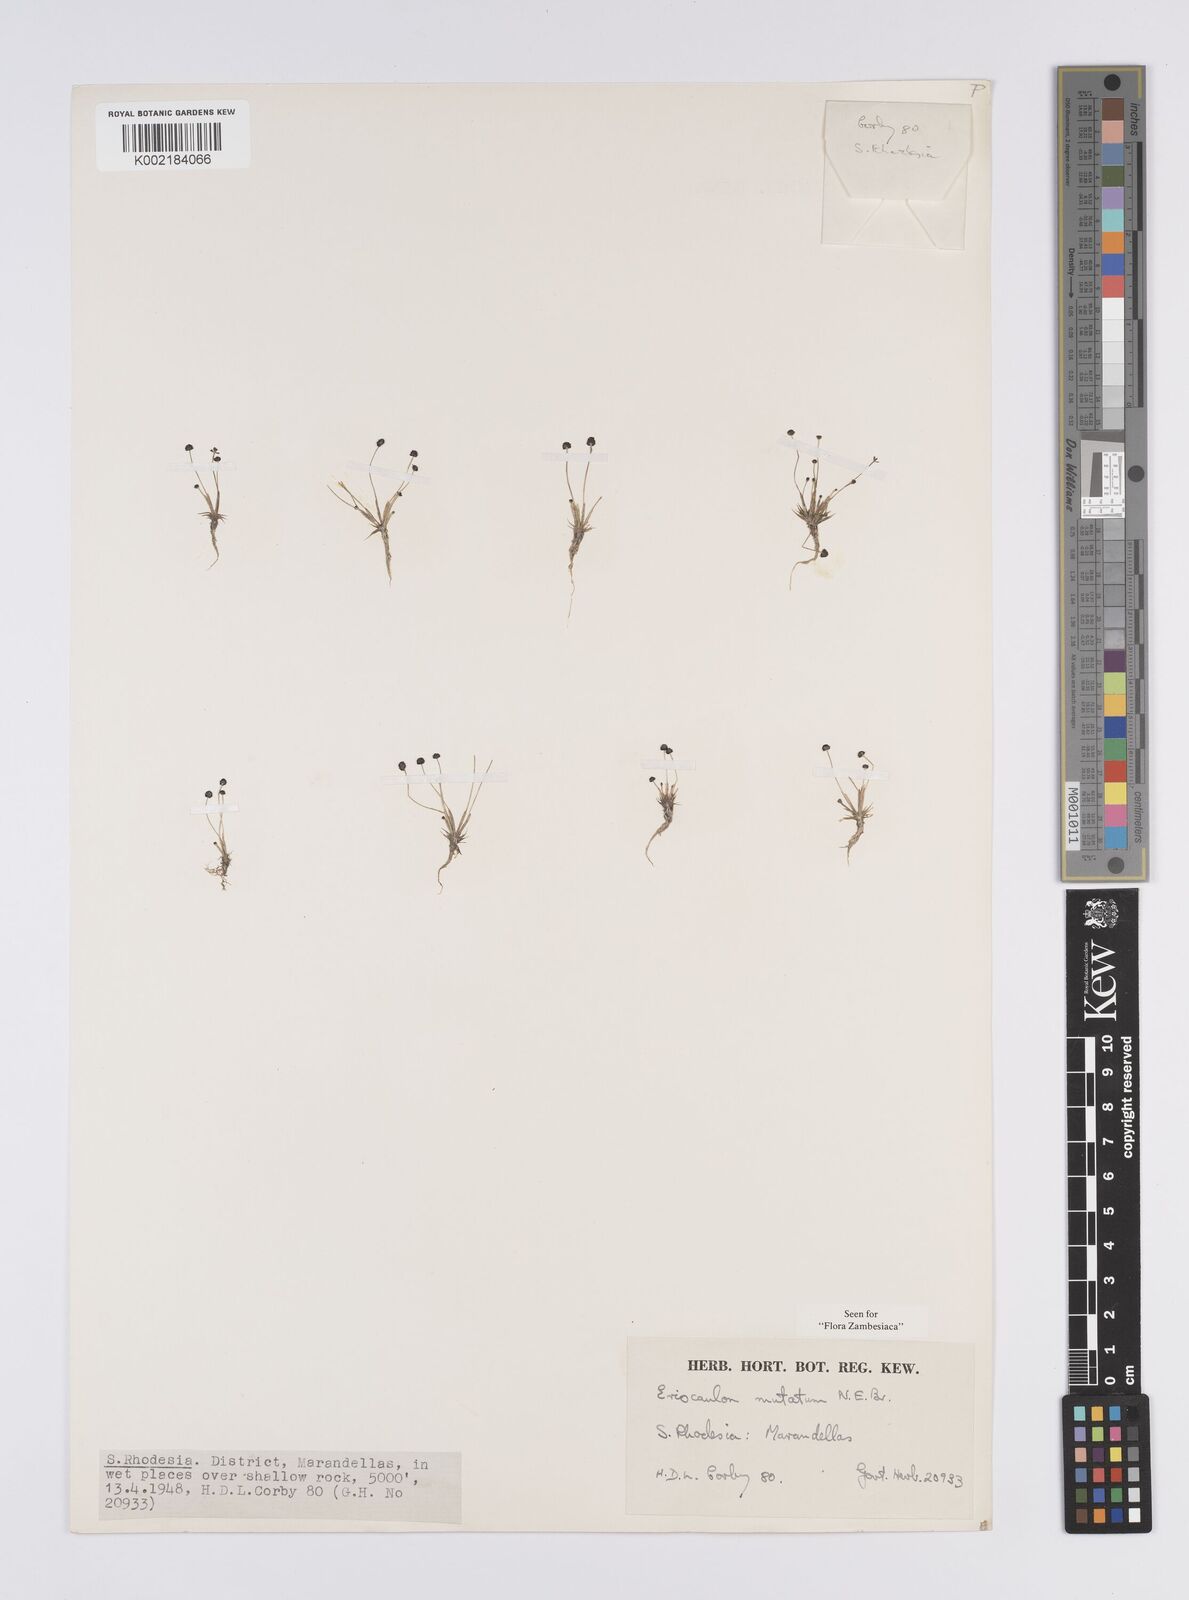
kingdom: Plantae
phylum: Tracheophyta
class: Liliopsida
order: Poales
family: Eriocaulaceae
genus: Eriocaulon
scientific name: Eriocaulon mutatum
